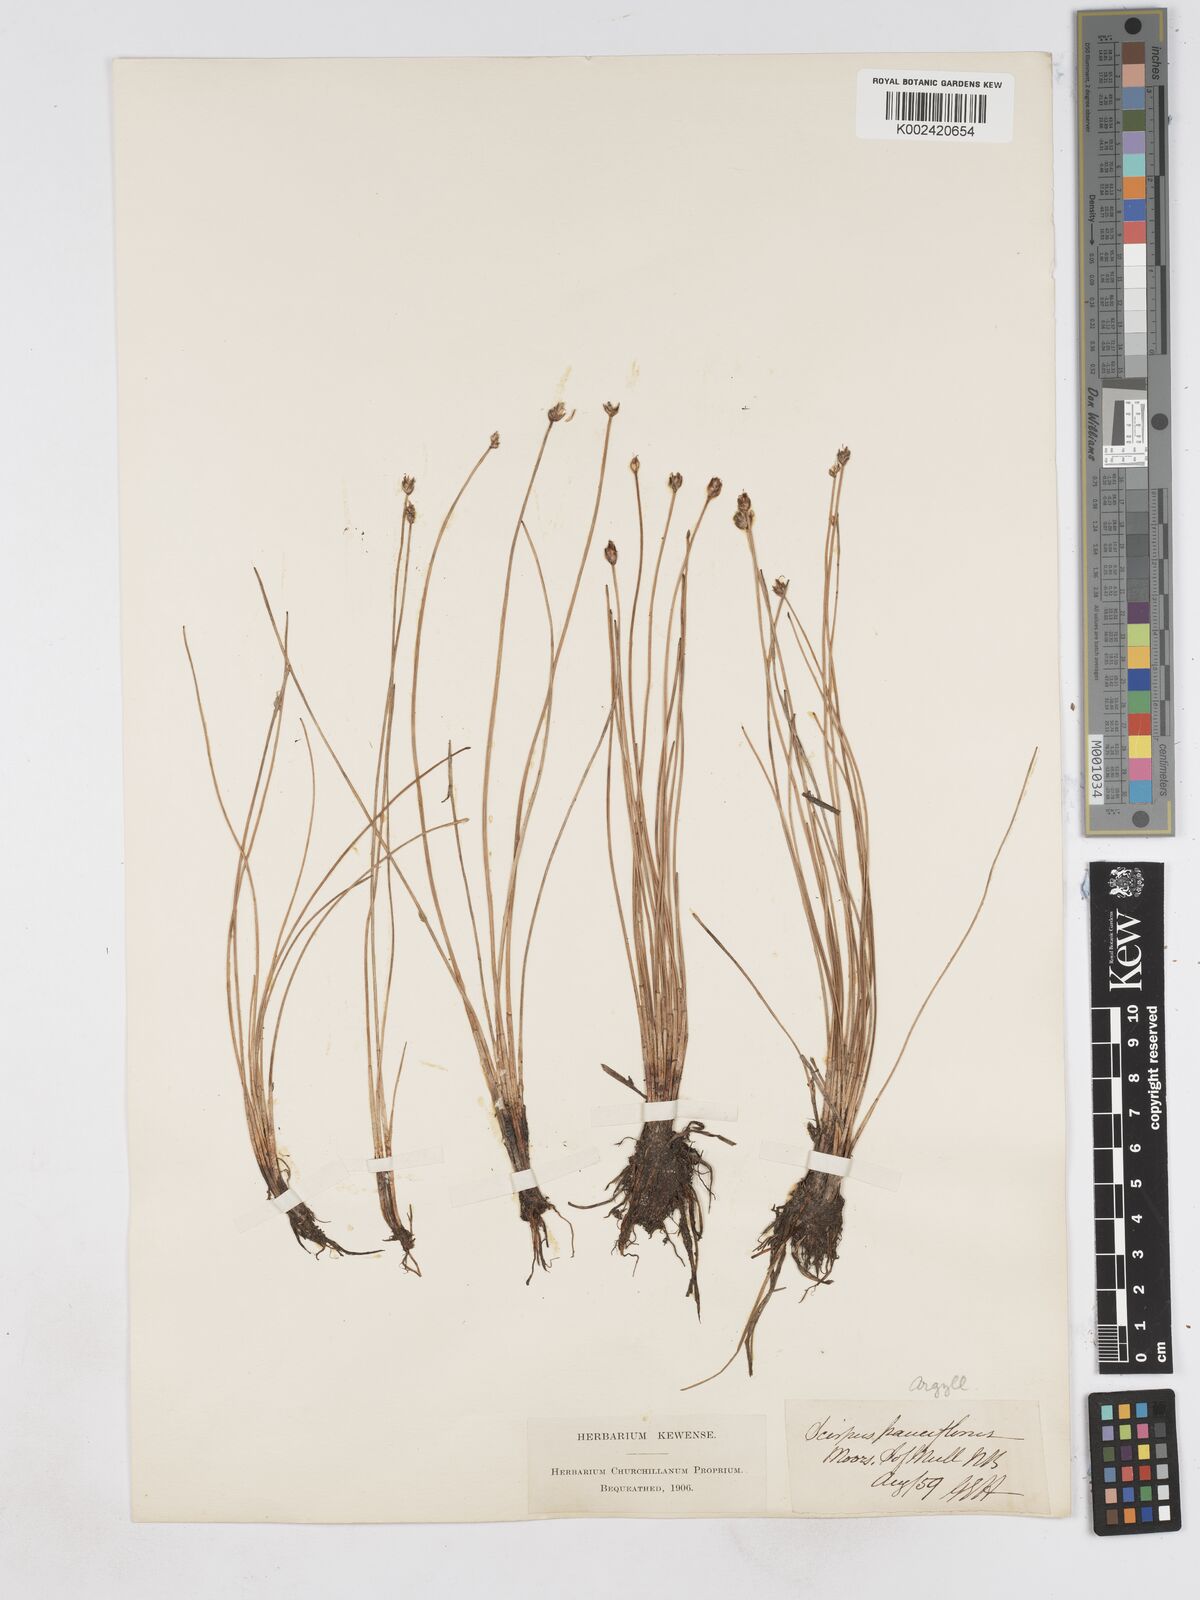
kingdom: Plantae
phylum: Tracheophyta
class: Liliopsida
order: Poales
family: Cyperaceae
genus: Eleocharis
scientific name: Eleocharis quinqueflora
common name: Few-flowered spike-rush
